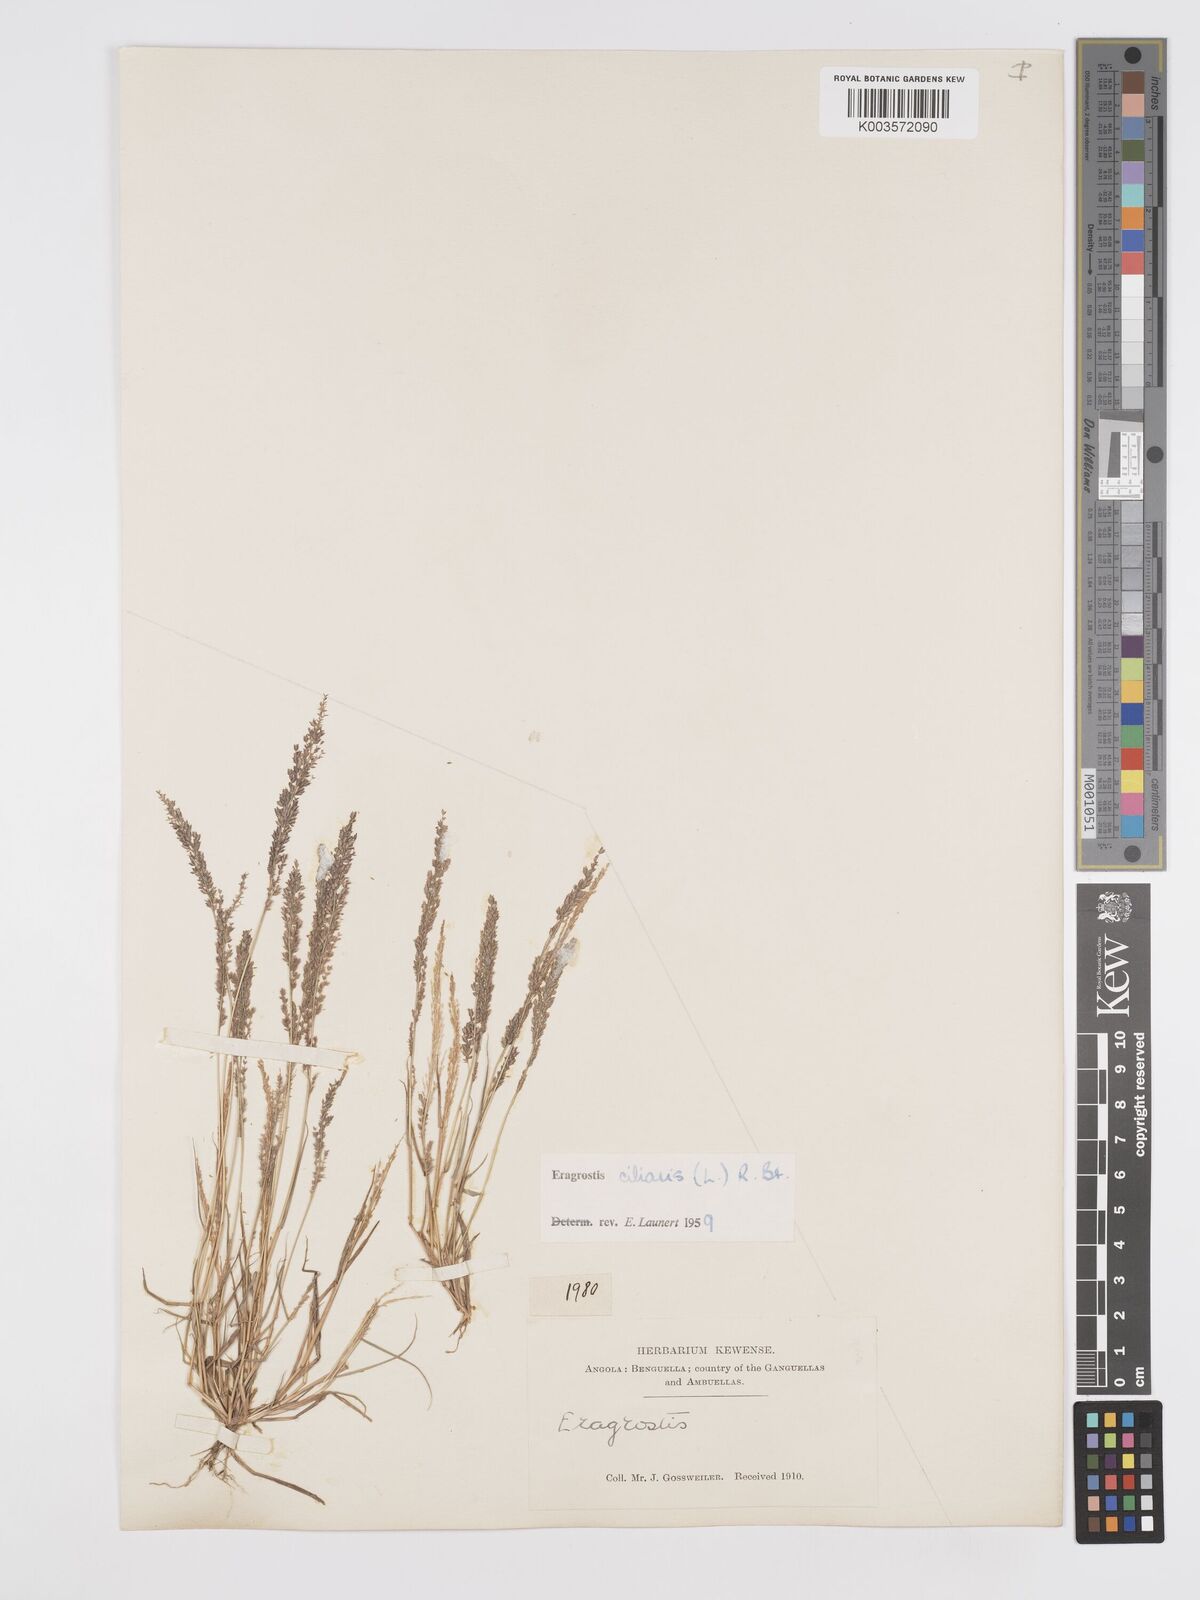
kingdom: Plantae
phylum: Tracheophyta
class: Liliopsida
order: Poales
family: Poaceae
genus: Eragrostis
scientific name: Eragrostis ciliaris
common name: Gophertail lovegrass
